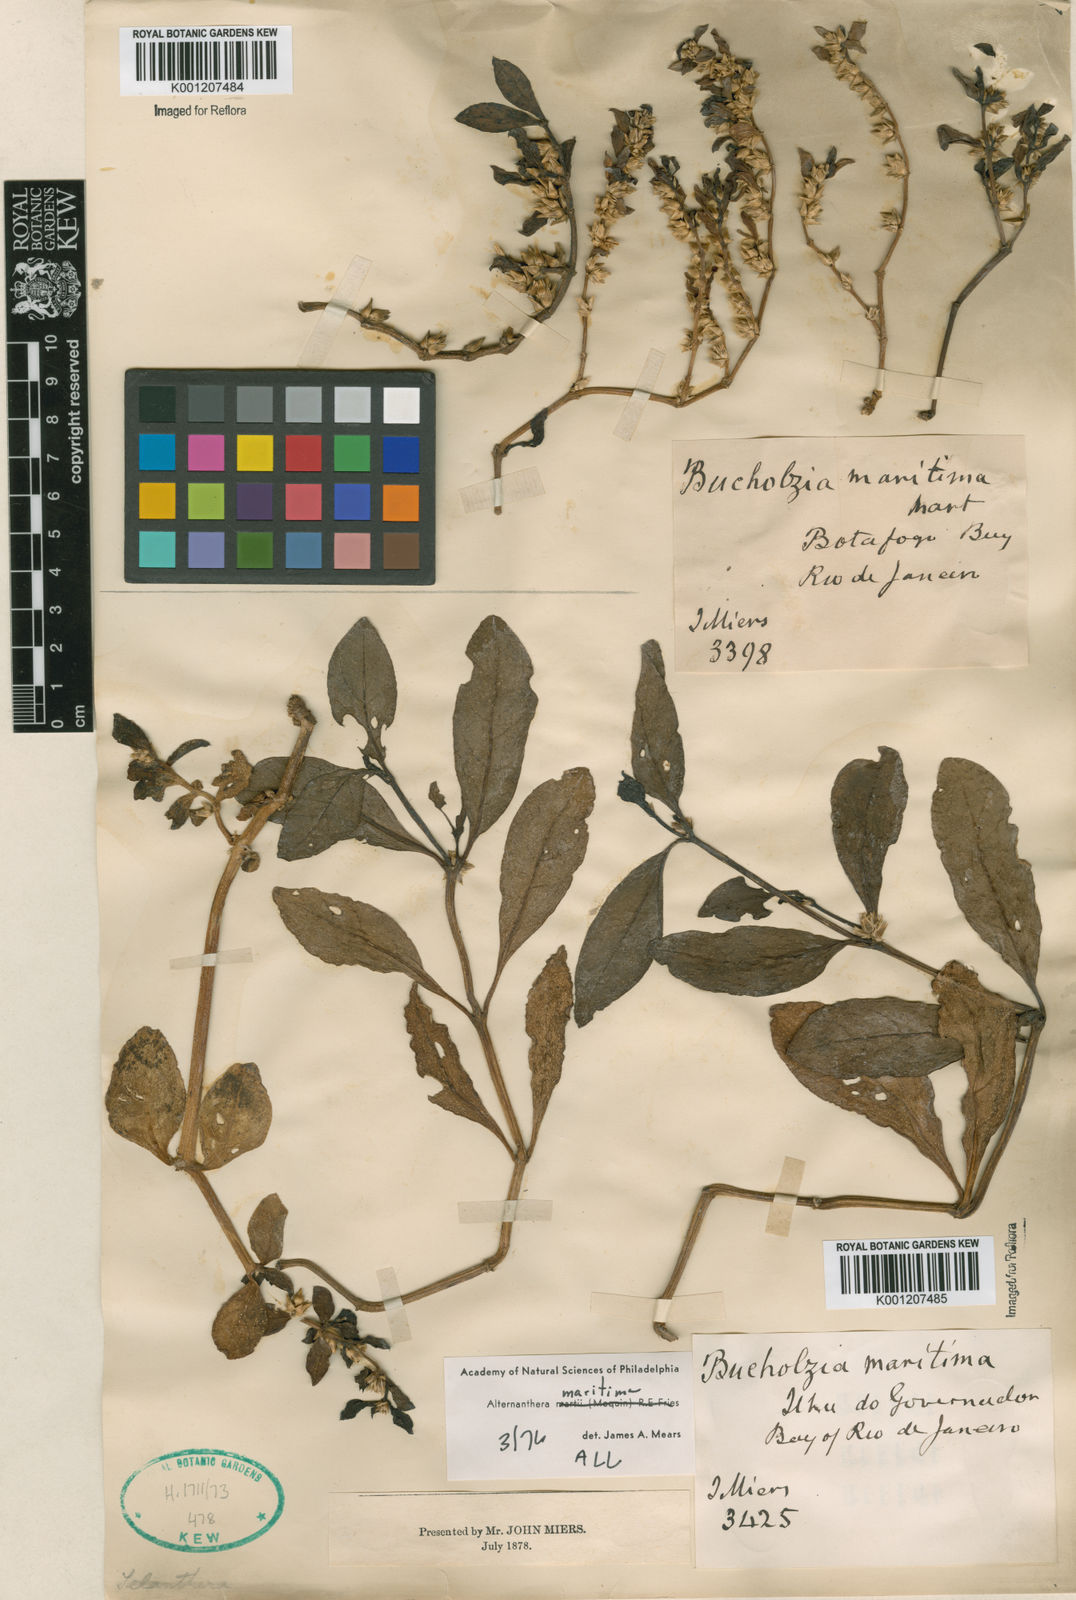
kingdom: Plantae
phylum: Tracheophyta
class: Magnoliopsida
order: Caryophyllales
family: Amaranthaceae
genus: Alternanthera
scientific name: Alternanthera littoralis
